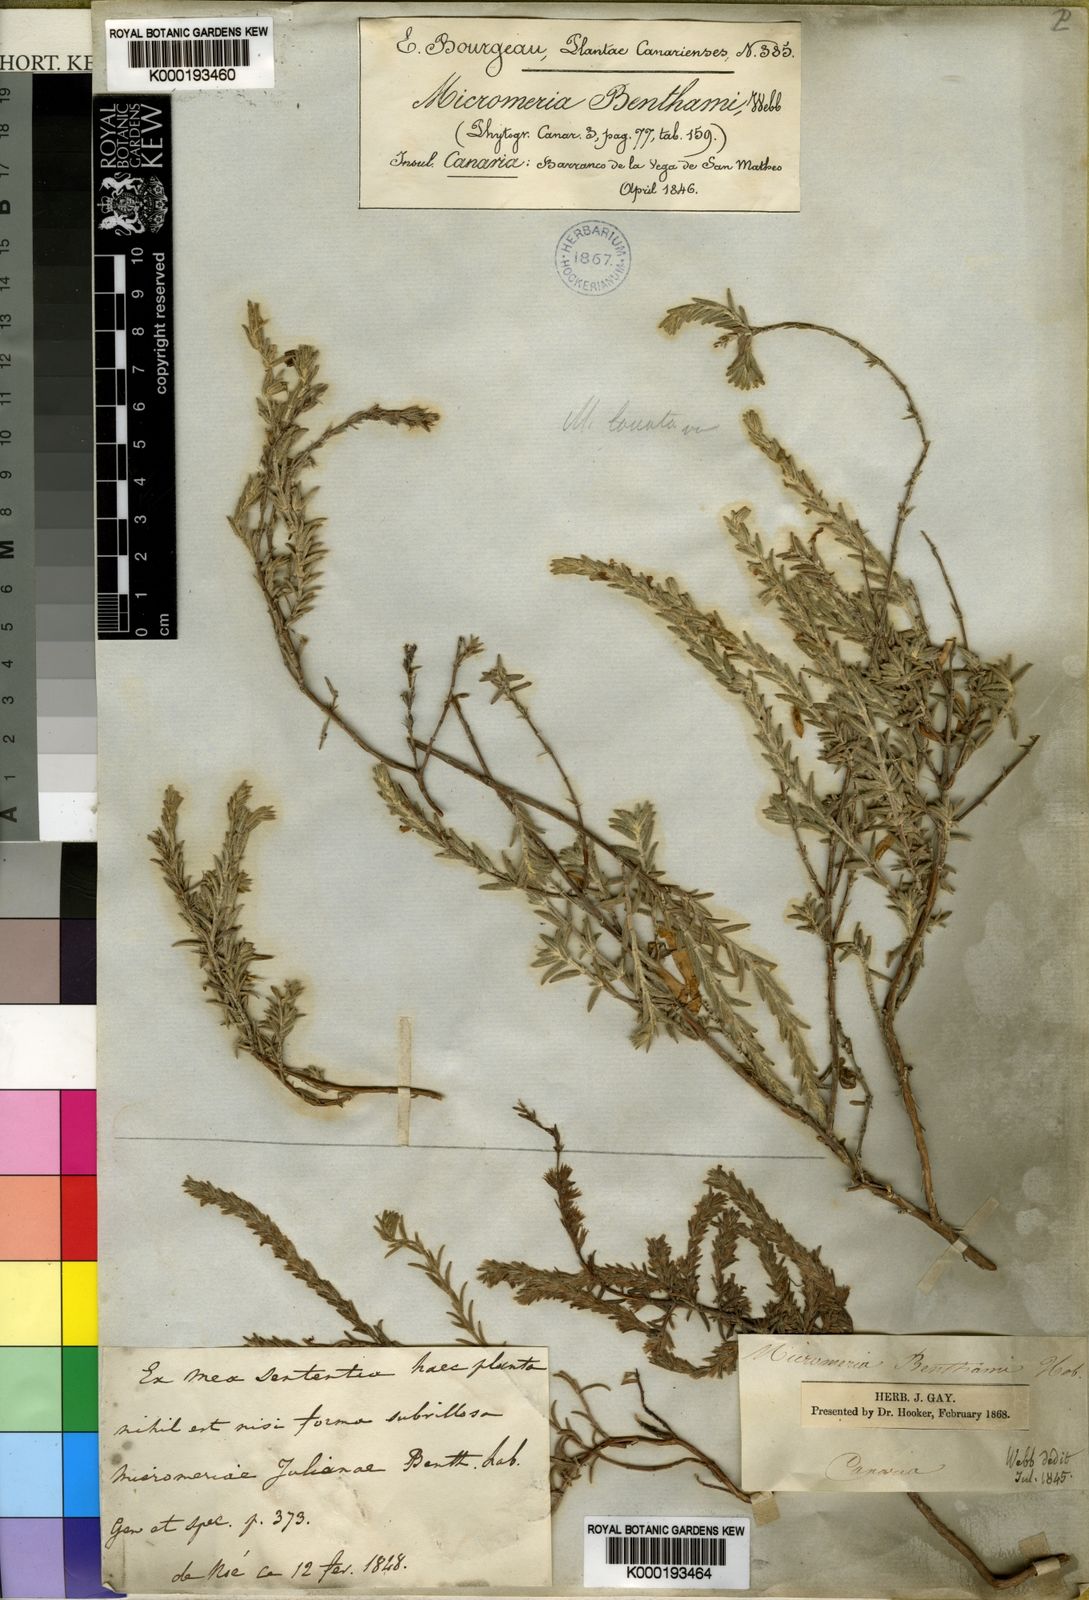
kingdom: Plantae
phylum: Tracheophyta
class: Magnoliopsida
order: Lamiales
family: Lamiaceae
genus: Micromeria
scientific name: Micromeria benthamii
